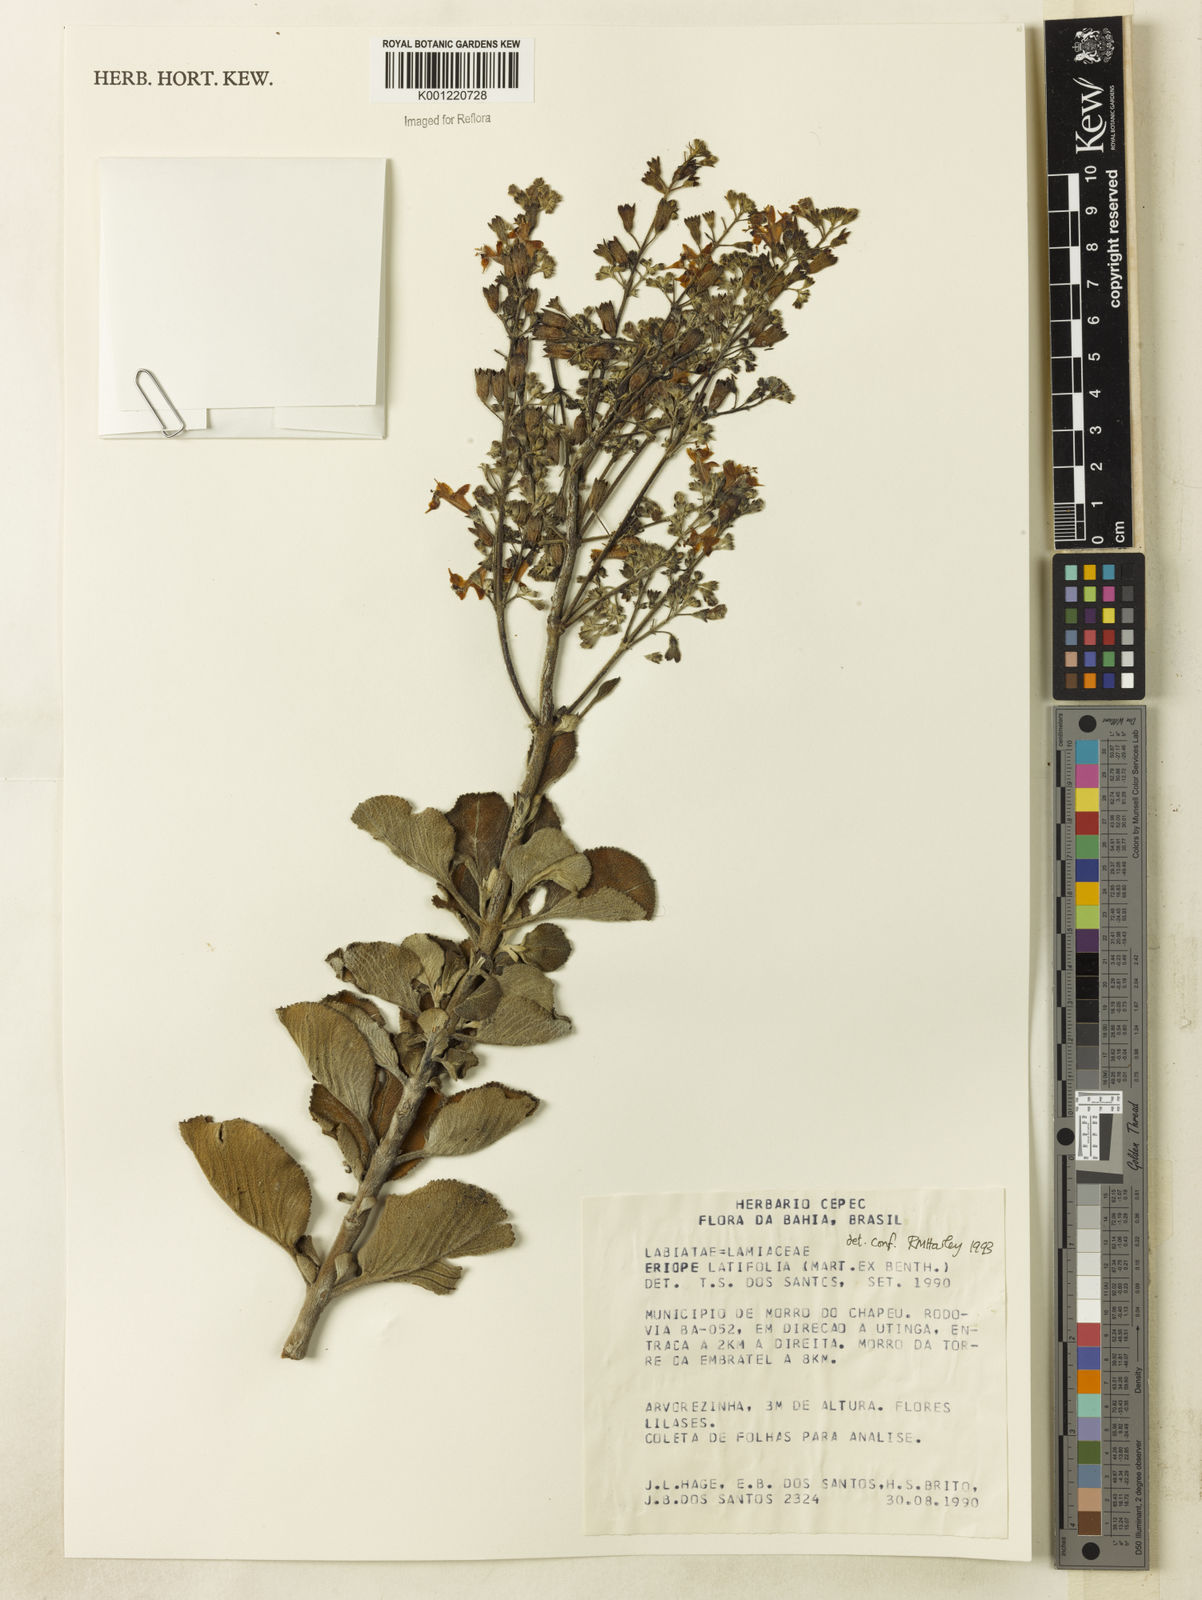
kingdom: Plantae
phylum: Tracheophyta
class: Magnoliopsida
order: Lamiales
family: Lamiaceae
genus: Eriope
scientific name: Eriope latifolia
